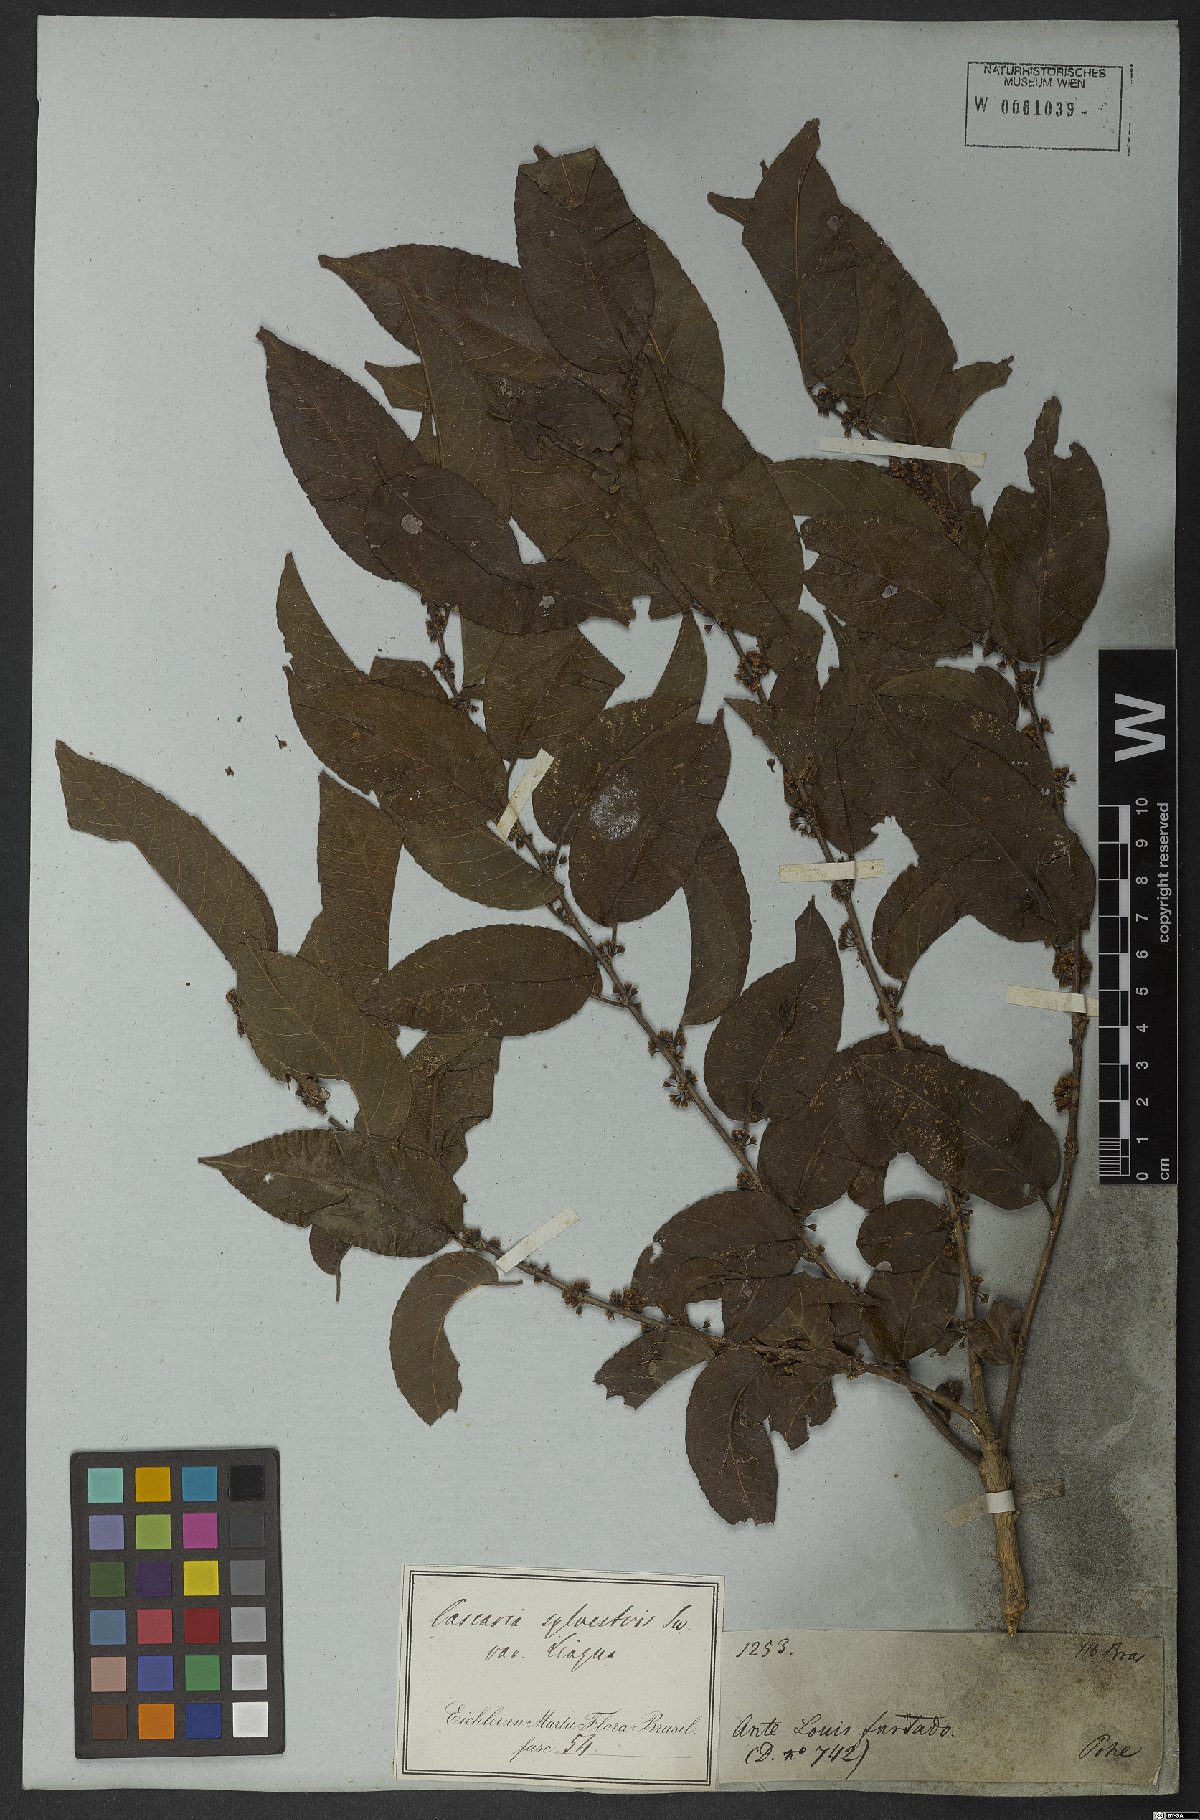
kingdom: Plantae
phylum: Tracheophyta
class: Magnoliopsida
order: Malpighiales
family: Salicaceae
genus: Casearia
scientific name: Casearia sylvestris
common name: Wild sage
